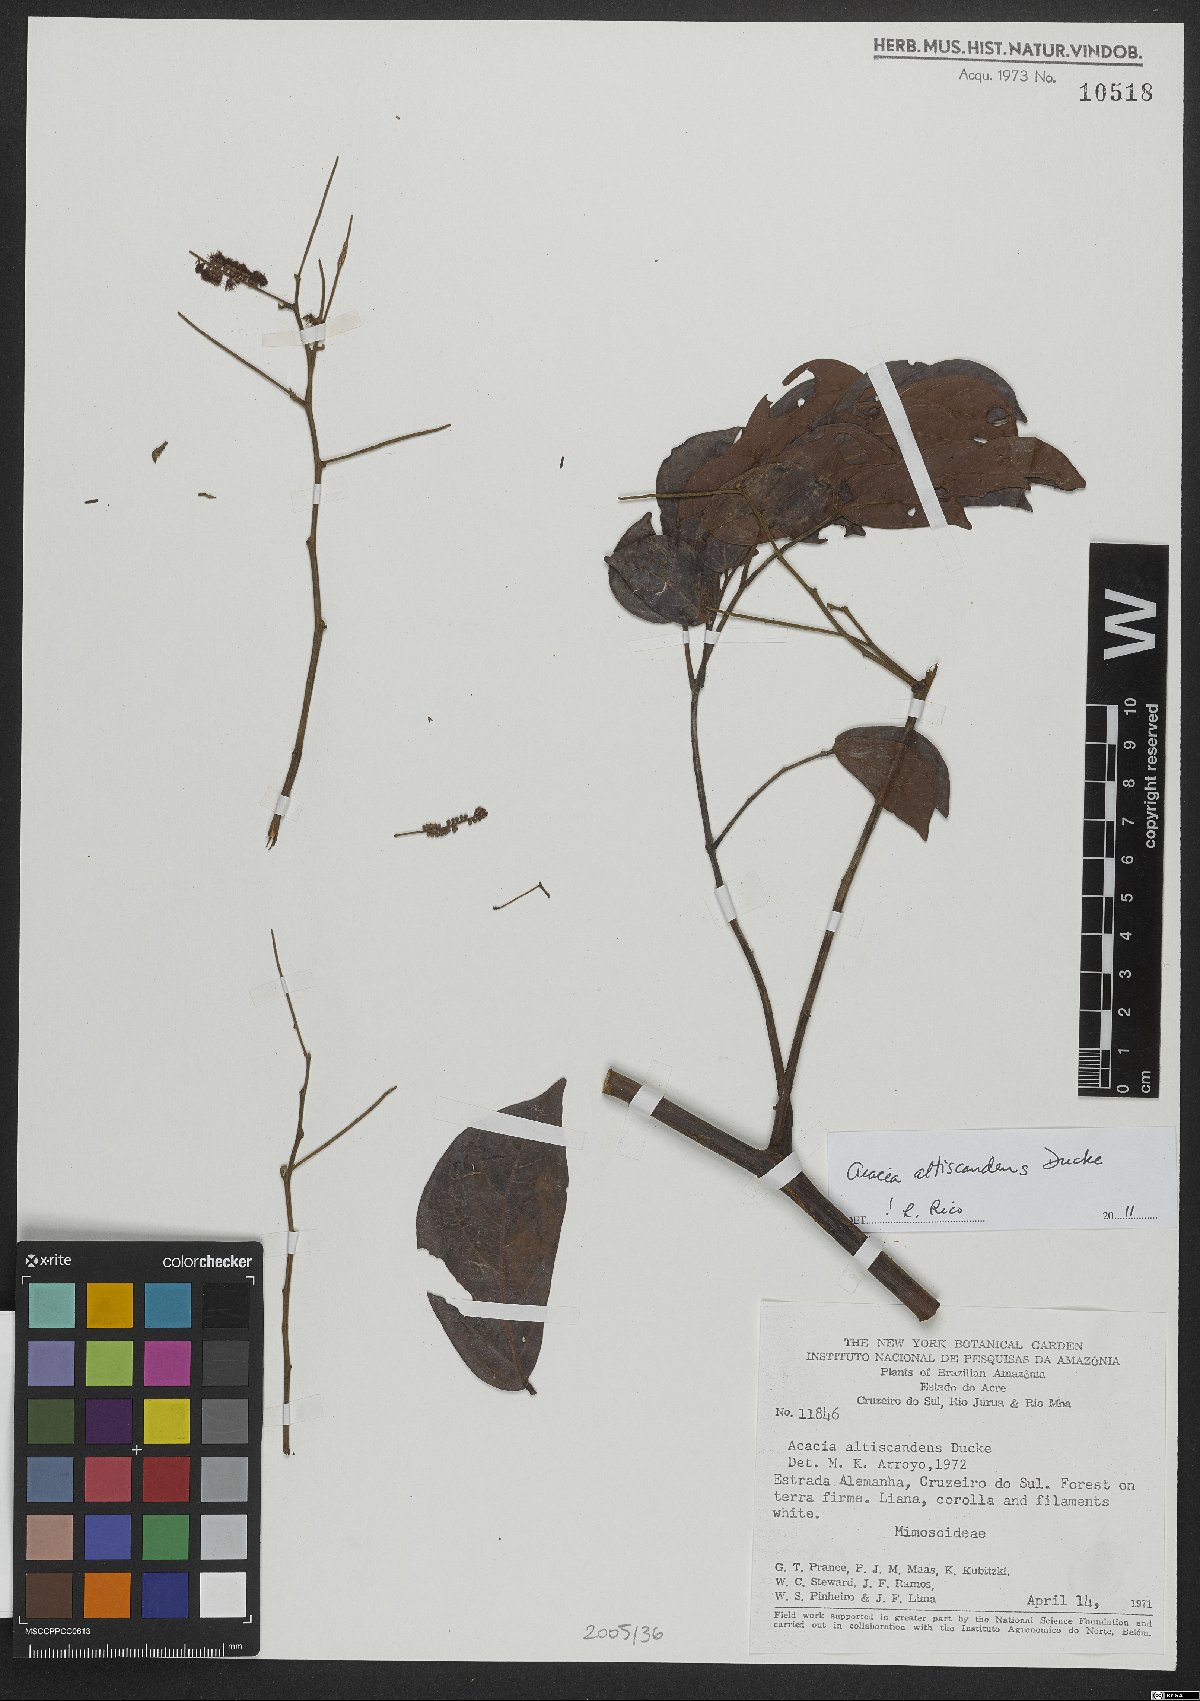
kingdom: Plantae
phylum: Tracheophyta
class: Magnoliopsida
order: Fabales
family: Fabaceae
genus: Senegalia
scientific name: Senegalia altiscandens
